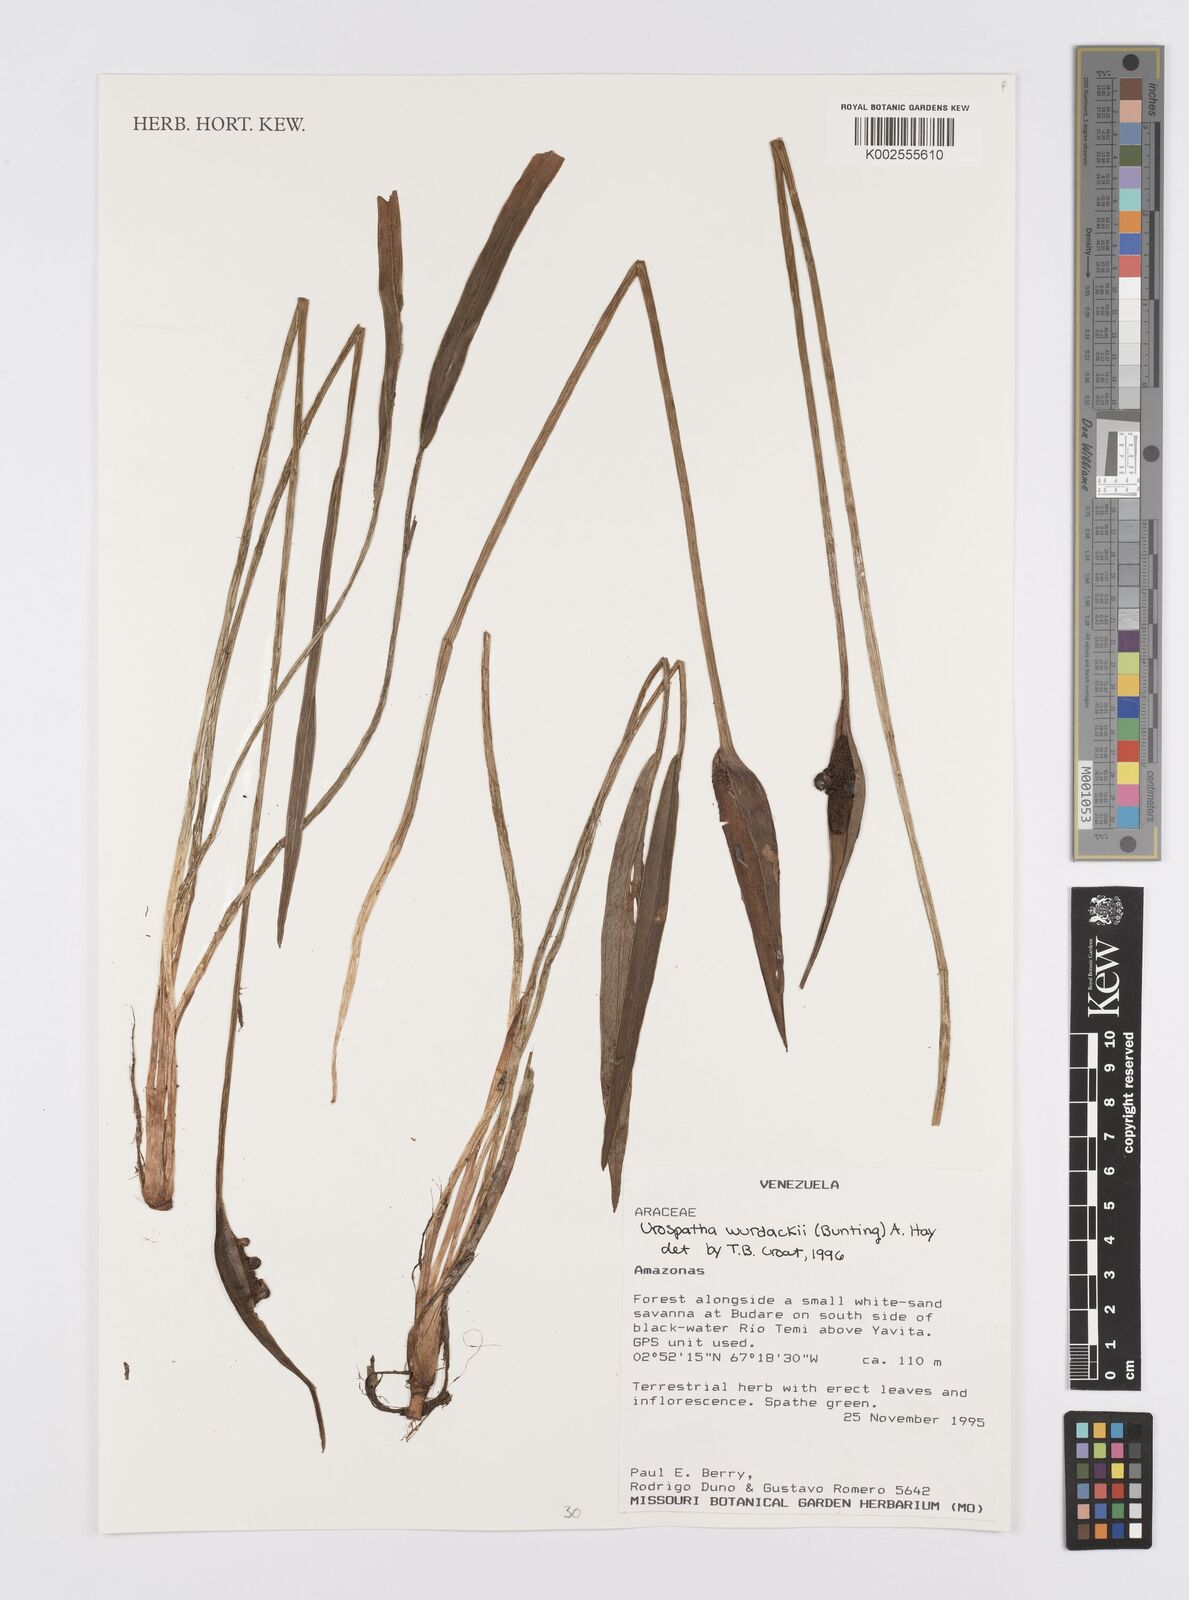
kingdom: Plantae
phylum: Tracheophyta
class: Liliopsida
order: Alismatales
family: Araceae
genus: Urospatha
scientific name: Urospatha wurdackii
